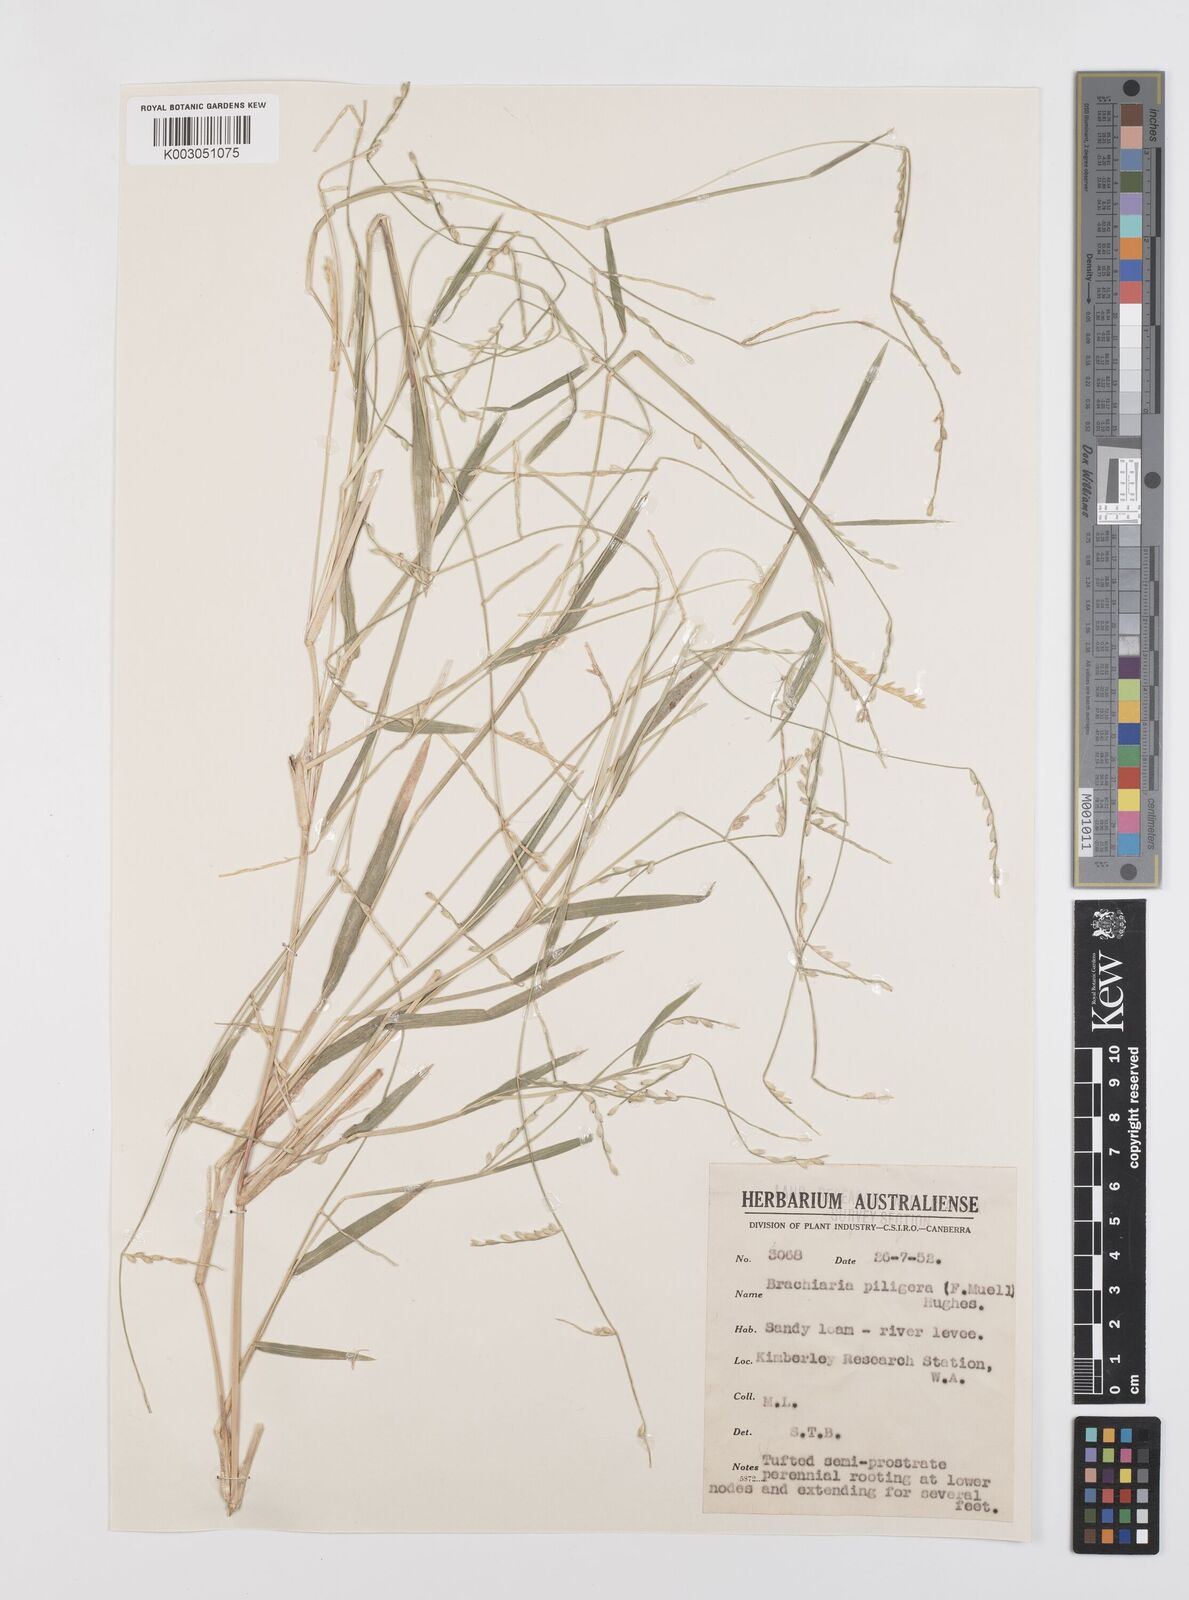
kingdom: Plantae
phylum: Tracheophyta
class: Liliopsida
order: Poales
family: Poaceae
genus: Urochloa
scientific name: Urochloa piligera
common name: Wattle signalgrass
